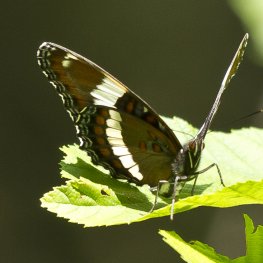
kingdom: Animalia
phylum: Arthropoda
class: Insecta
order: Lepidoptera
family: Nymphalidae
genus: Limenitis
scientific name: Limenitis arthemis
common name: Red-spotted Admiral
